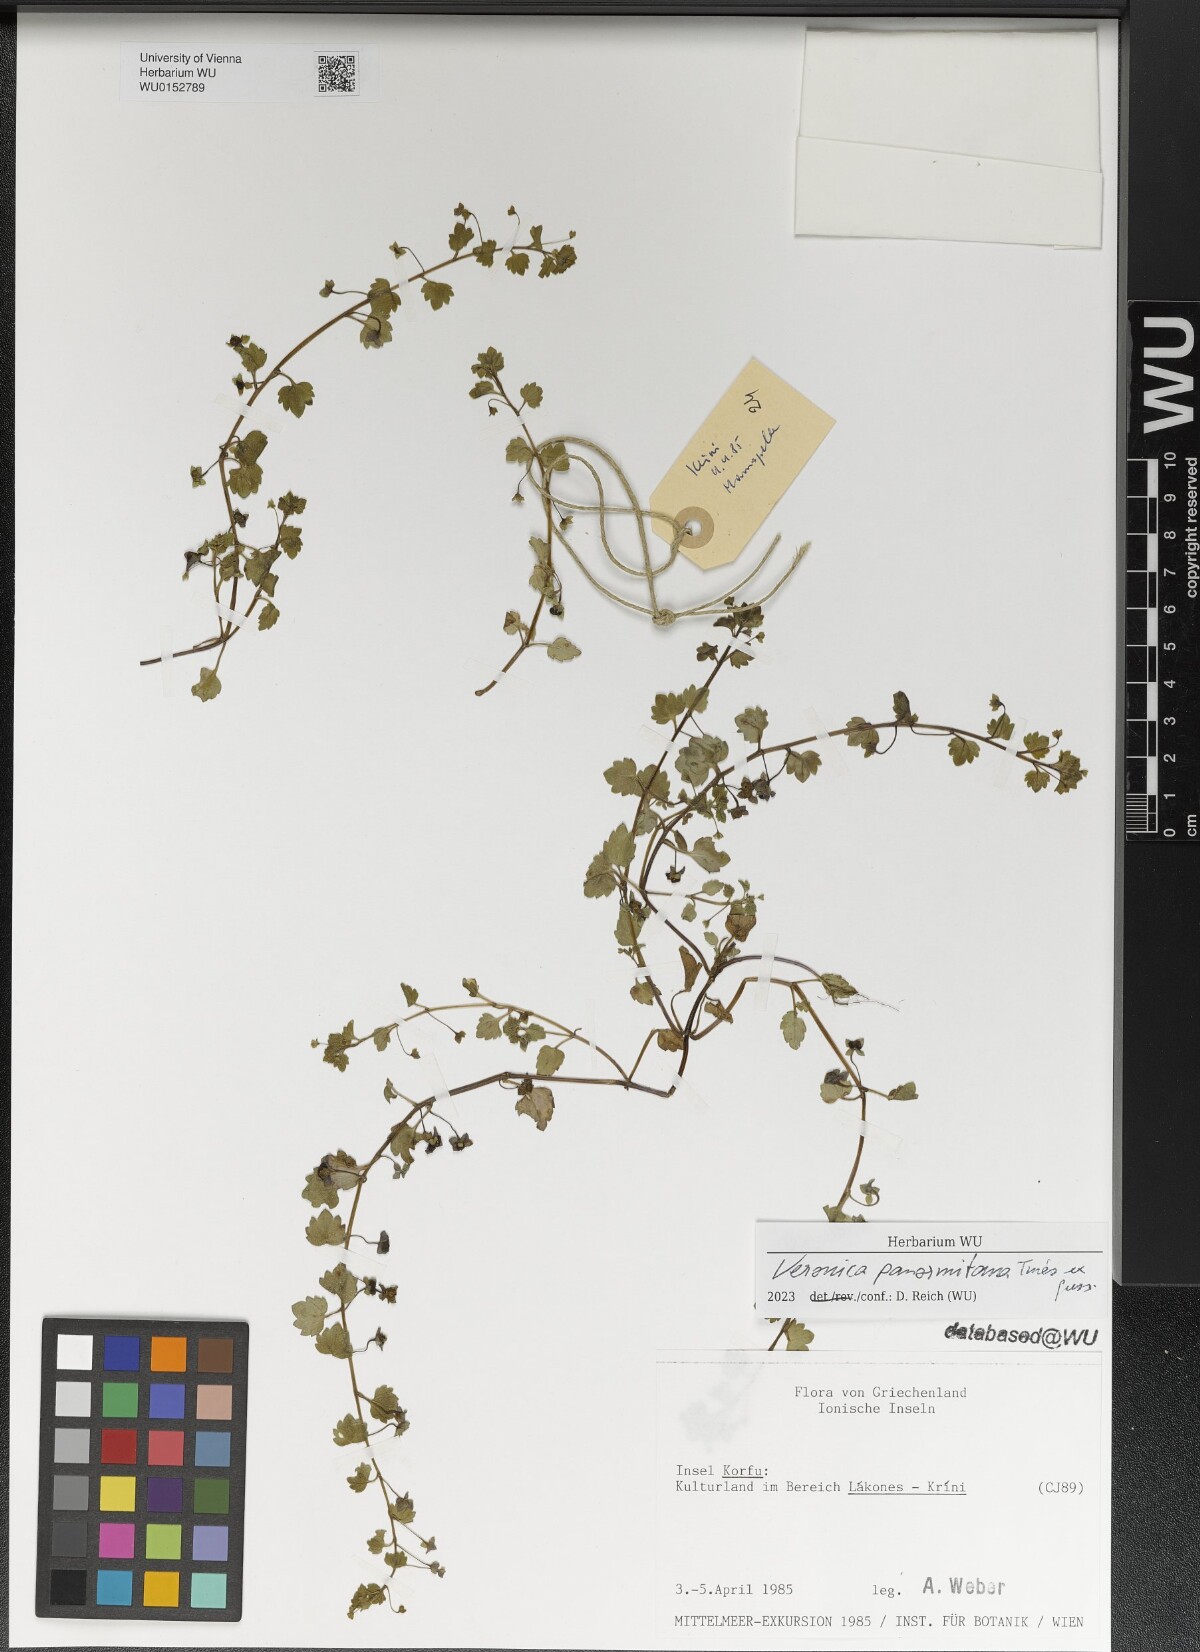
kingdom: Plantae
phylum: Tracheophyta
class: Magnoliopsida
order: Lamiales
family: Plantaginaceae
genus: Veronica
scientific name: Veronica panormitana
